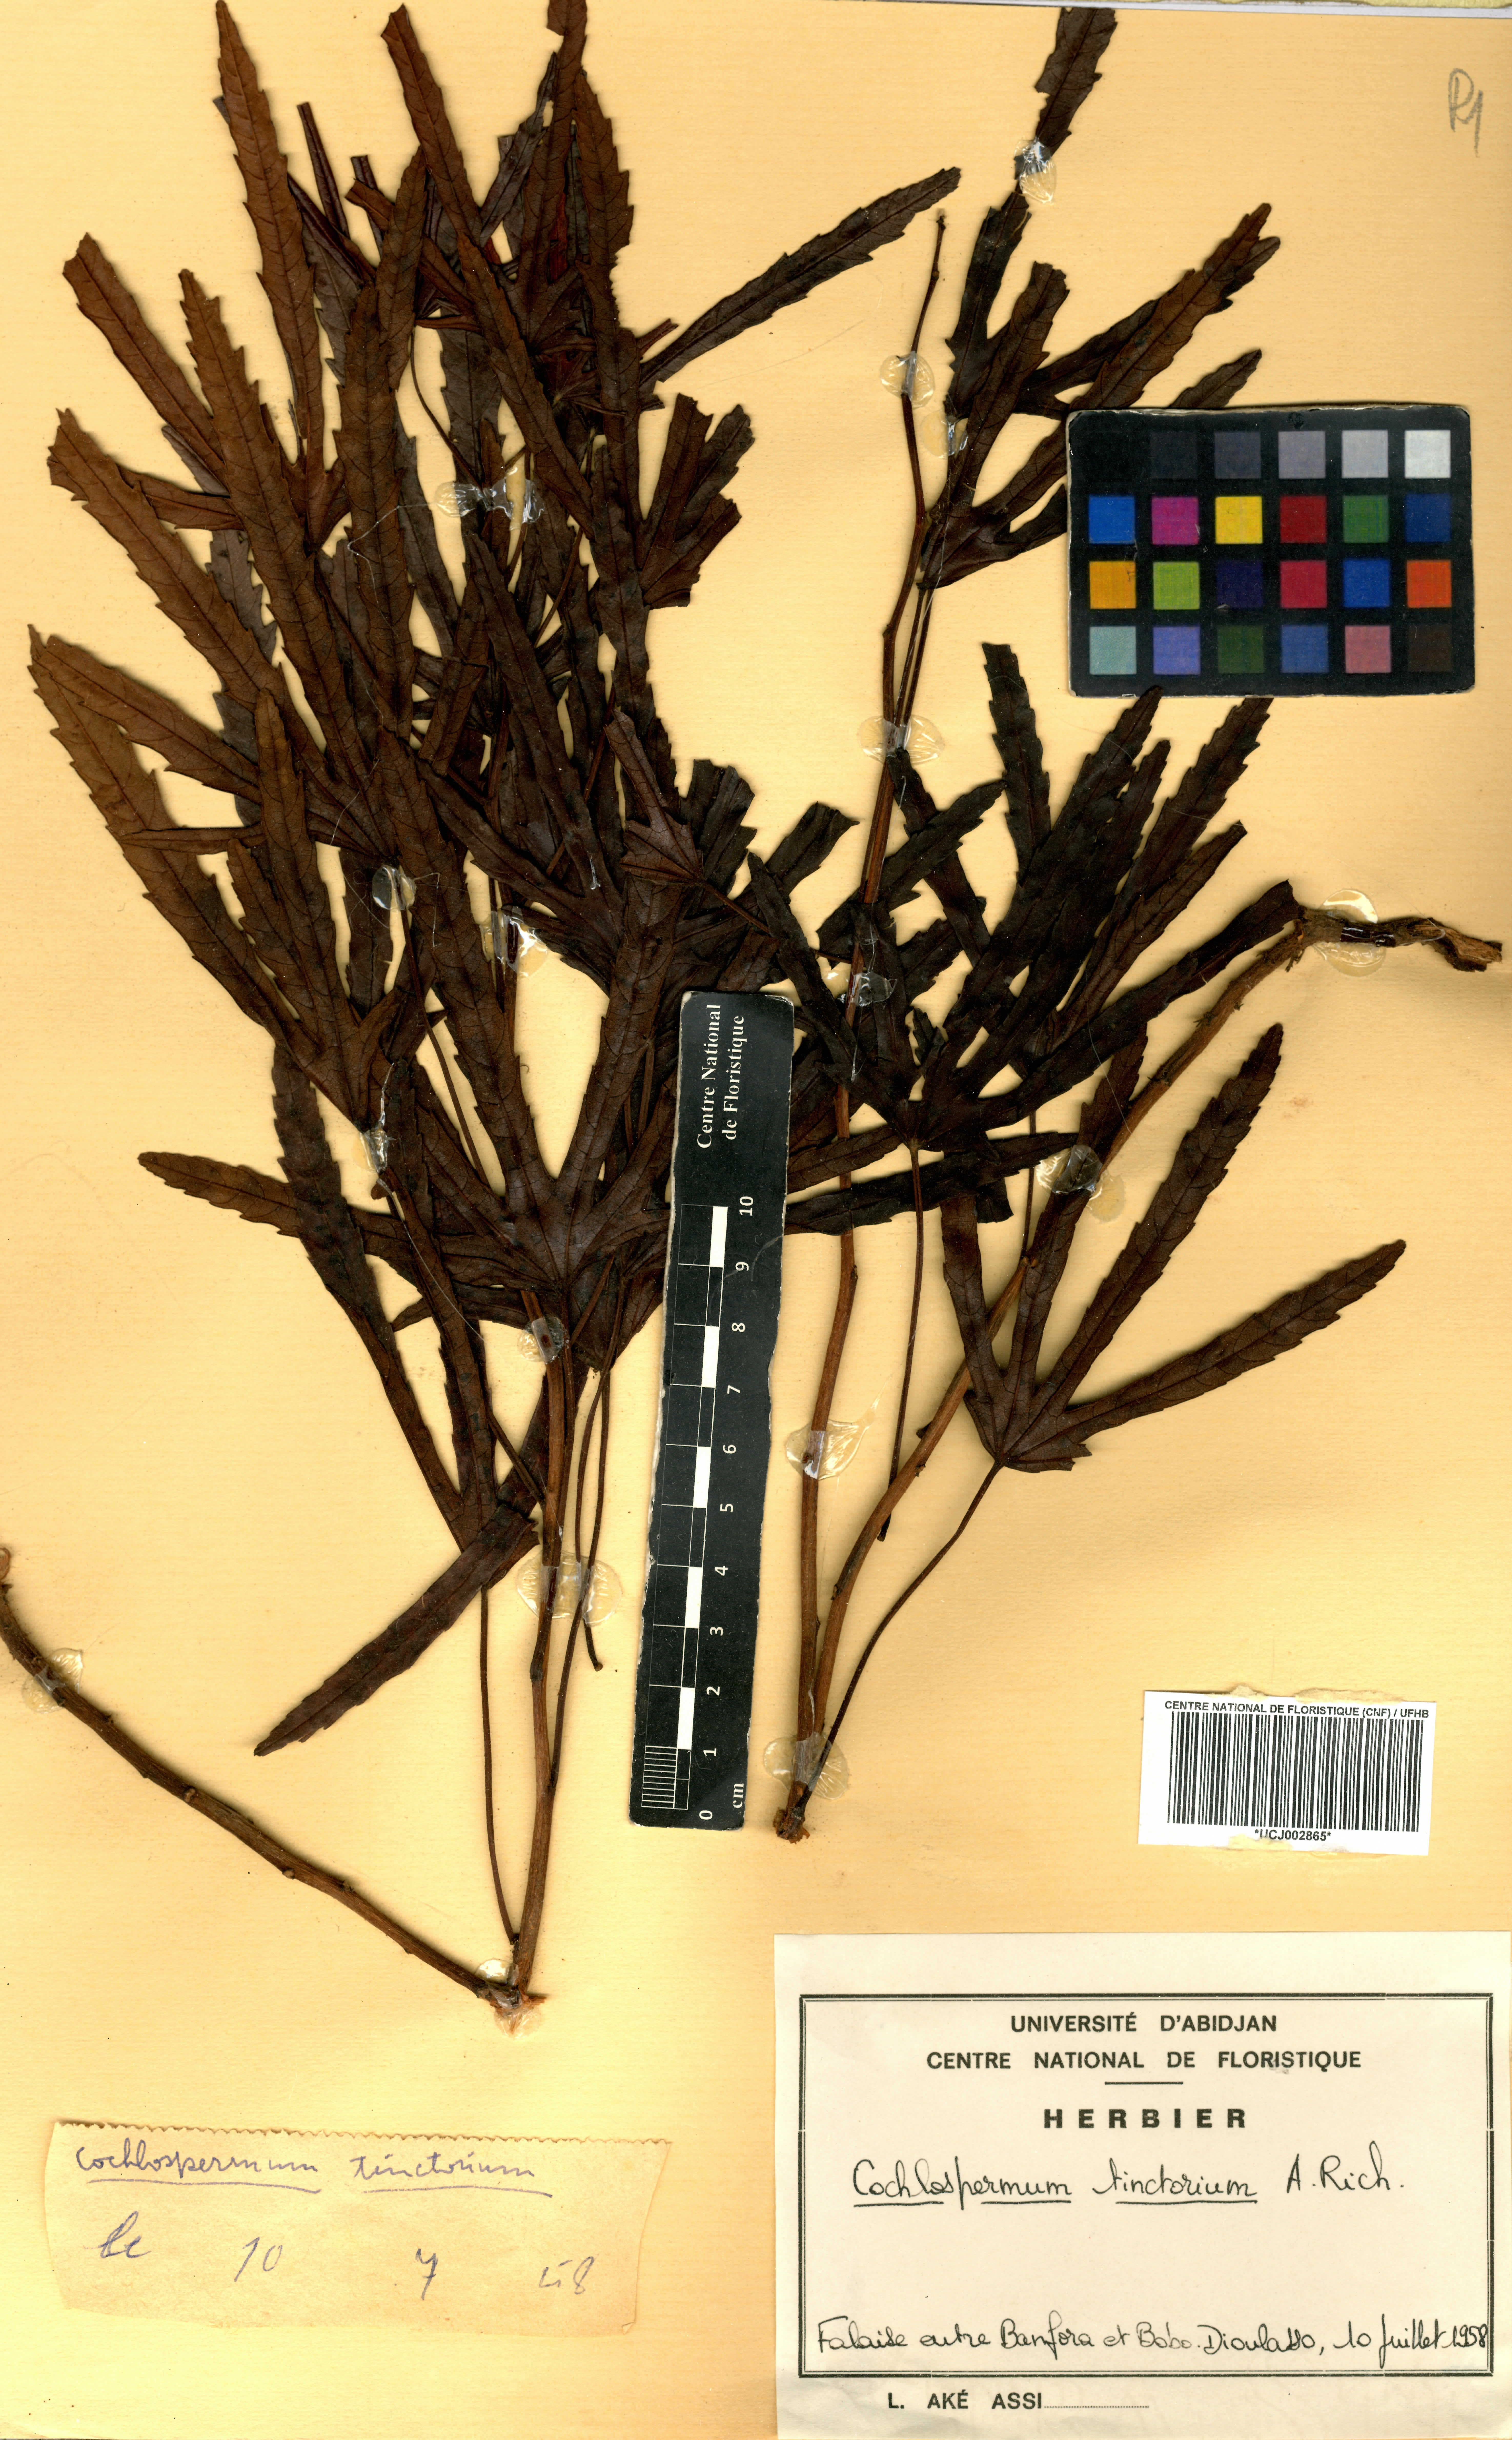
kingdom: Plantae
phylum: Tracheophyta
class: Magnoliopsida
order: Malvales
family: Cochlospermaceae
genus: Cochlospermum
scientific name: Cochlospermum tinctorium
